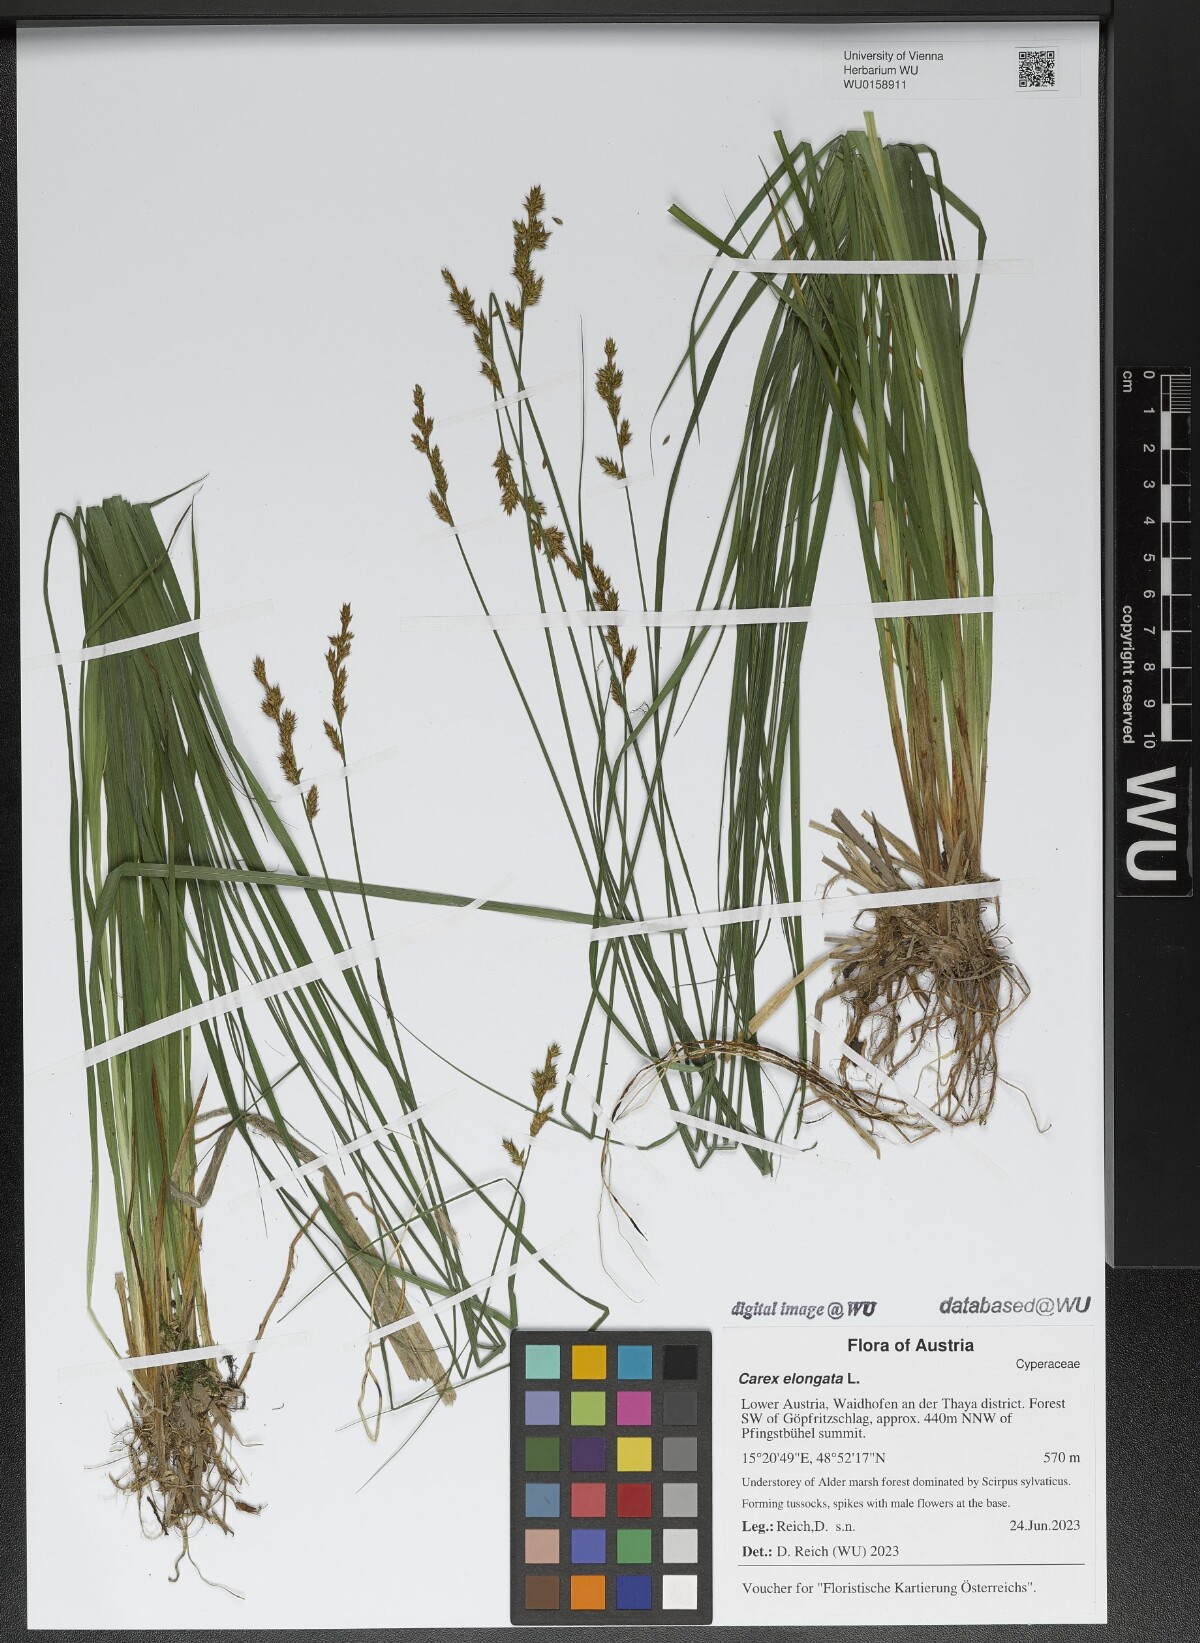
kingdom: Plantae
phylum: Tracheophyta
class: Liliopsida
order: Poales
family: Cyperaceae
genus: Carex
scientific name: Carex elongata
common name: Elongated sedge
